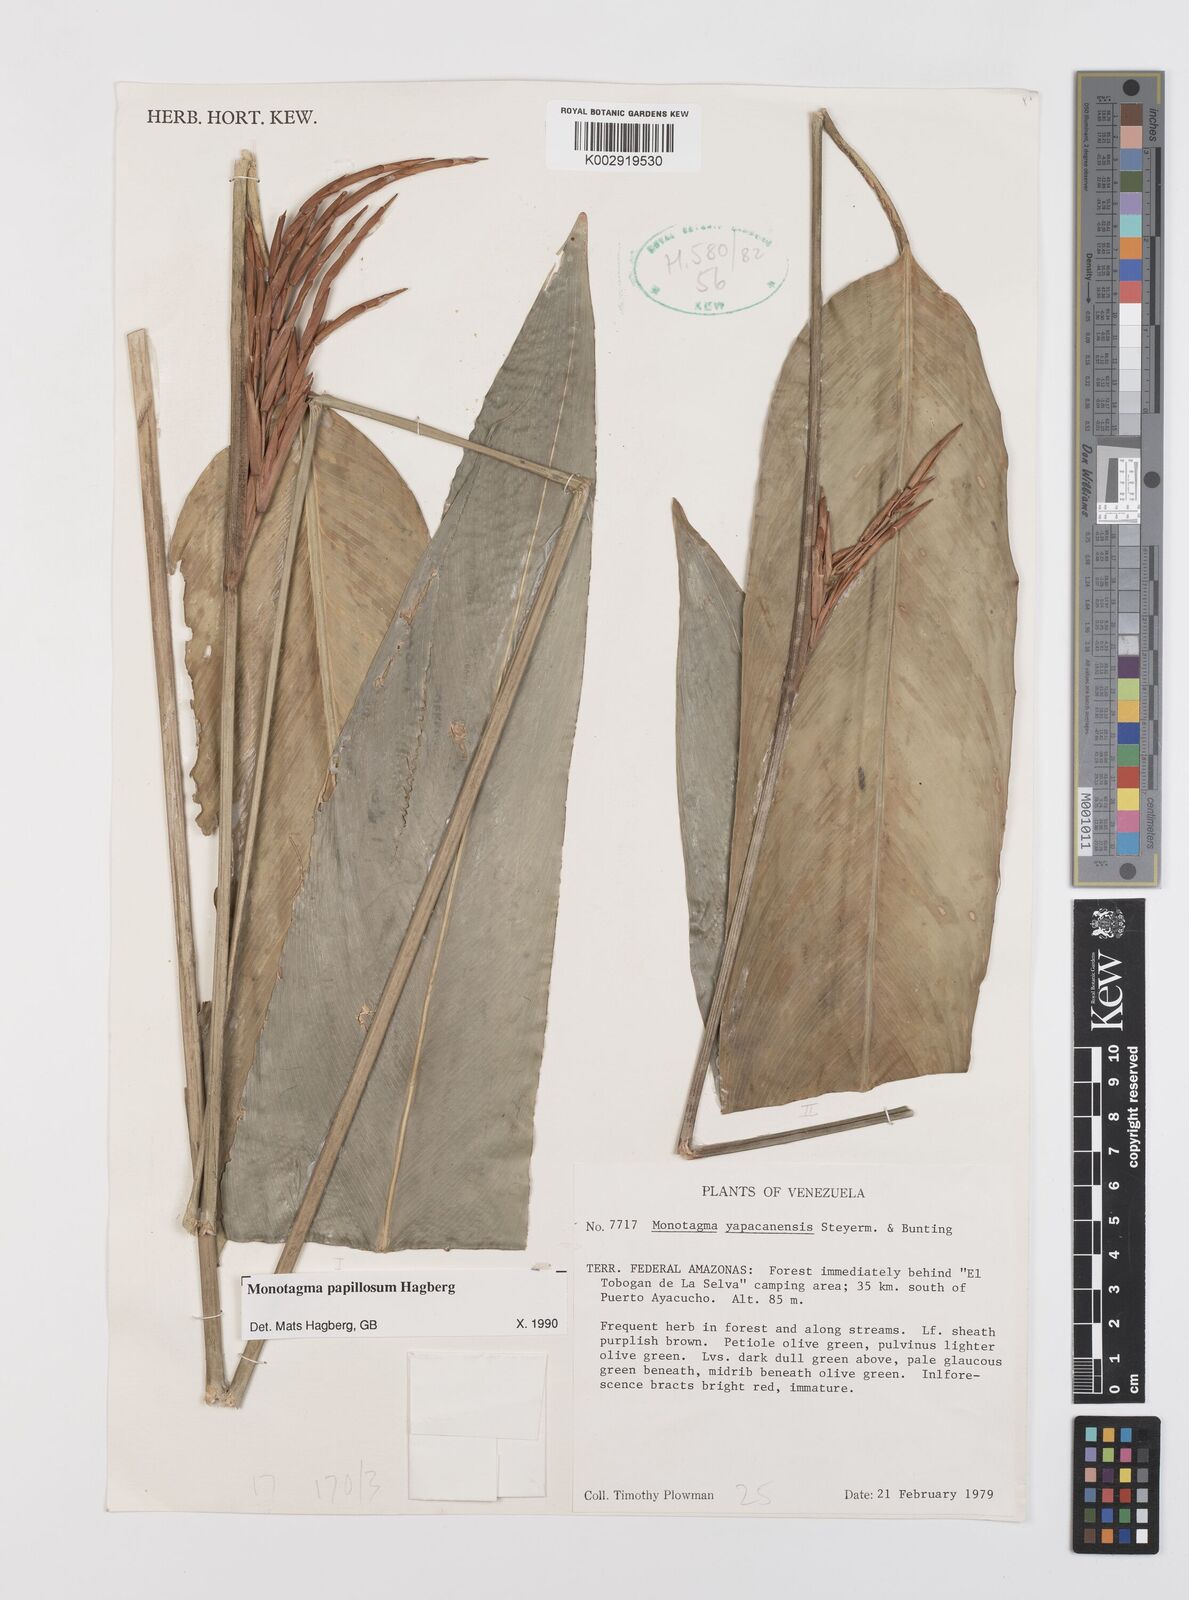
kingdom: Plantae
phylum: Tracheophyta
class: Liliopsida
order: Zingiberales
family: Marantaceae
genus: Monotagma
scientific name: Monotagma papillosum
